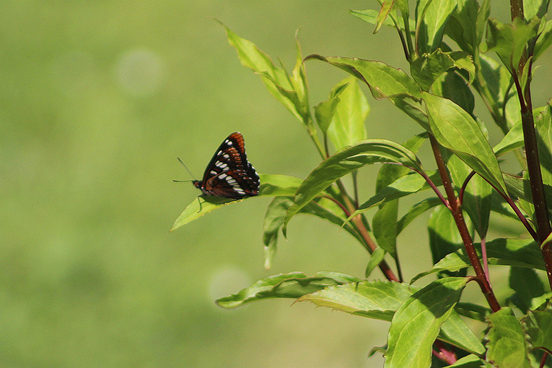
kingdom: Animalia
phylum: Arthropoda
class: Insecta
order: Lepidoptera
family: Nymphalidae
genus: Limenitis
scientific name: Limenitis lorquini
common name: Lorquin's Admiral
